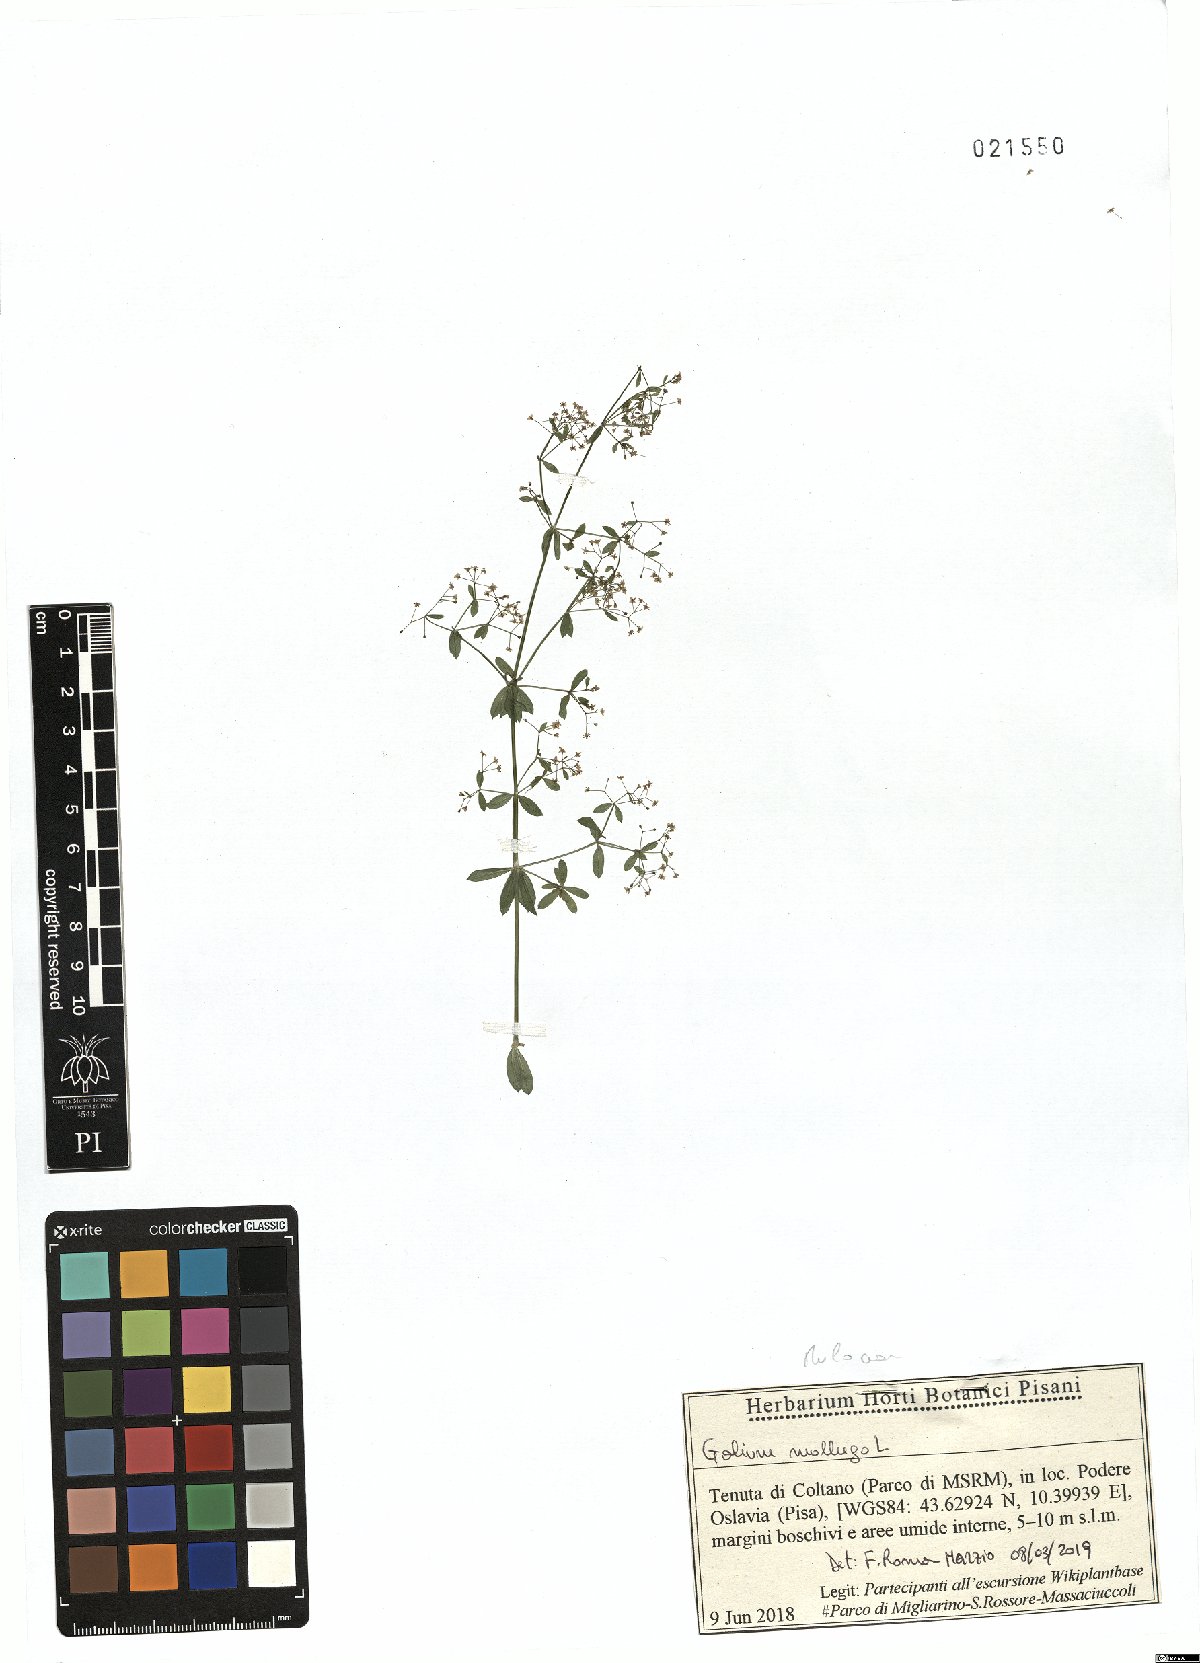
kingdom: Plantae
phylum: Tracheophyta
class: Magnoliopsida
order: Gentianales
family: Rubiaceae
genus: Galium
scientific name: Galium mollugo
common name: Hedge bedstraw
